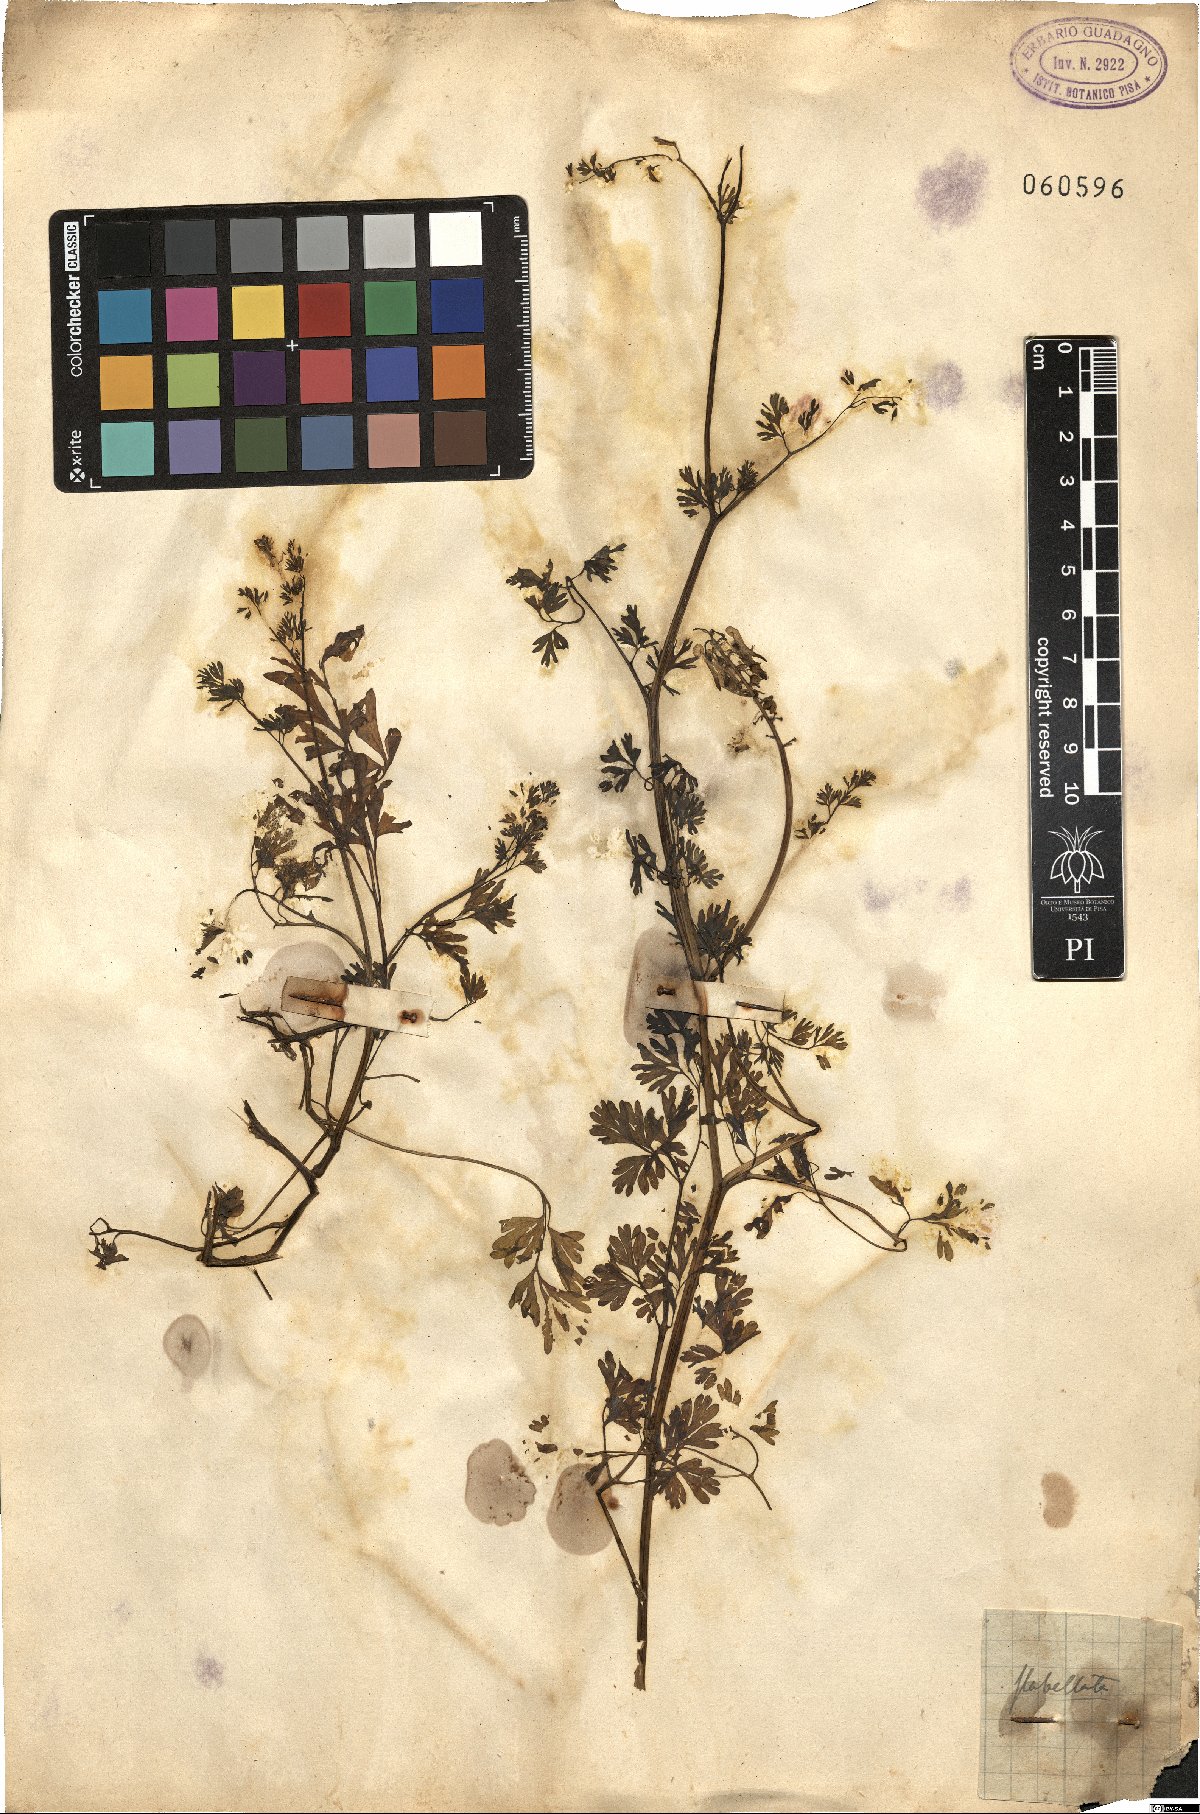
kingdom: Plantae
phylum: Tracheophyta
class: Magnoliopsida
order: Ranunculales
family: Papaveraceae
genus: Fumaria
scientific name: Fumaria flabellata
